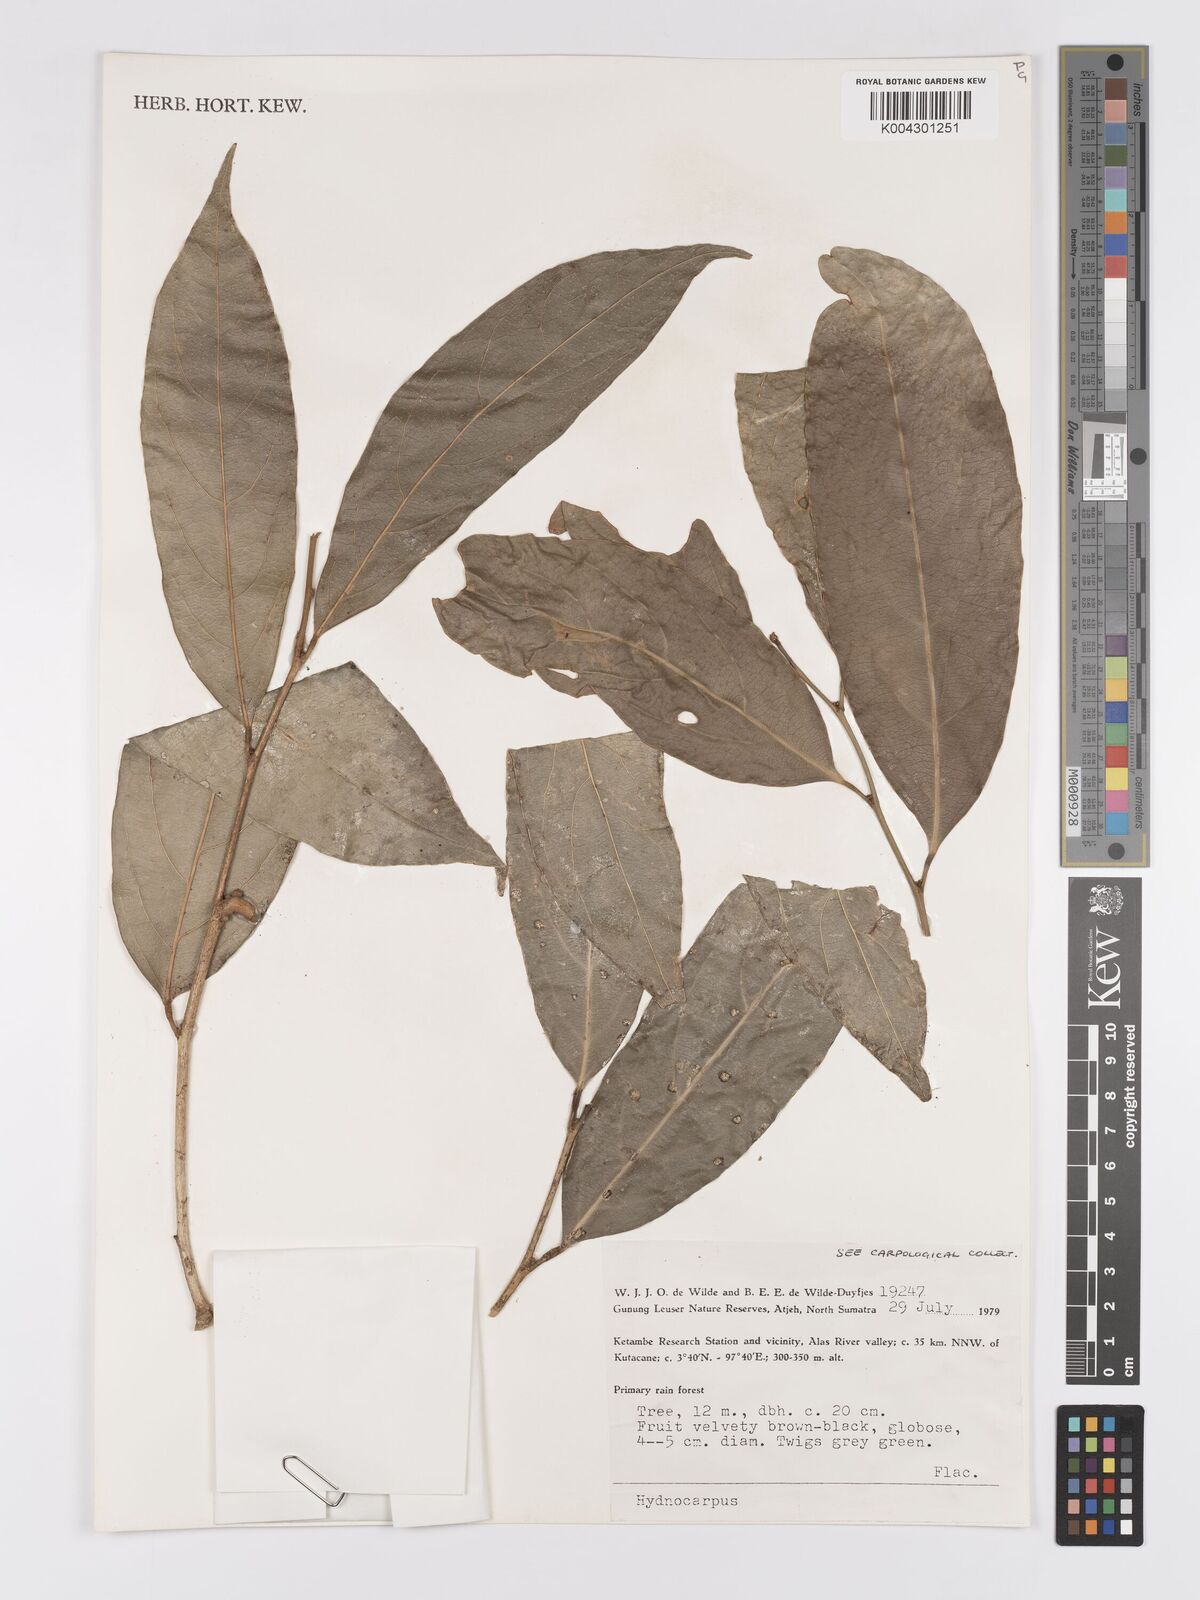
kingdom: Plantae
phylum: Tracheophyta
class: Magnoliopsida
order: Malpighiales
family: Achariaceae
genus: Hydnocarpus
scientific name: Hydnocarpus
